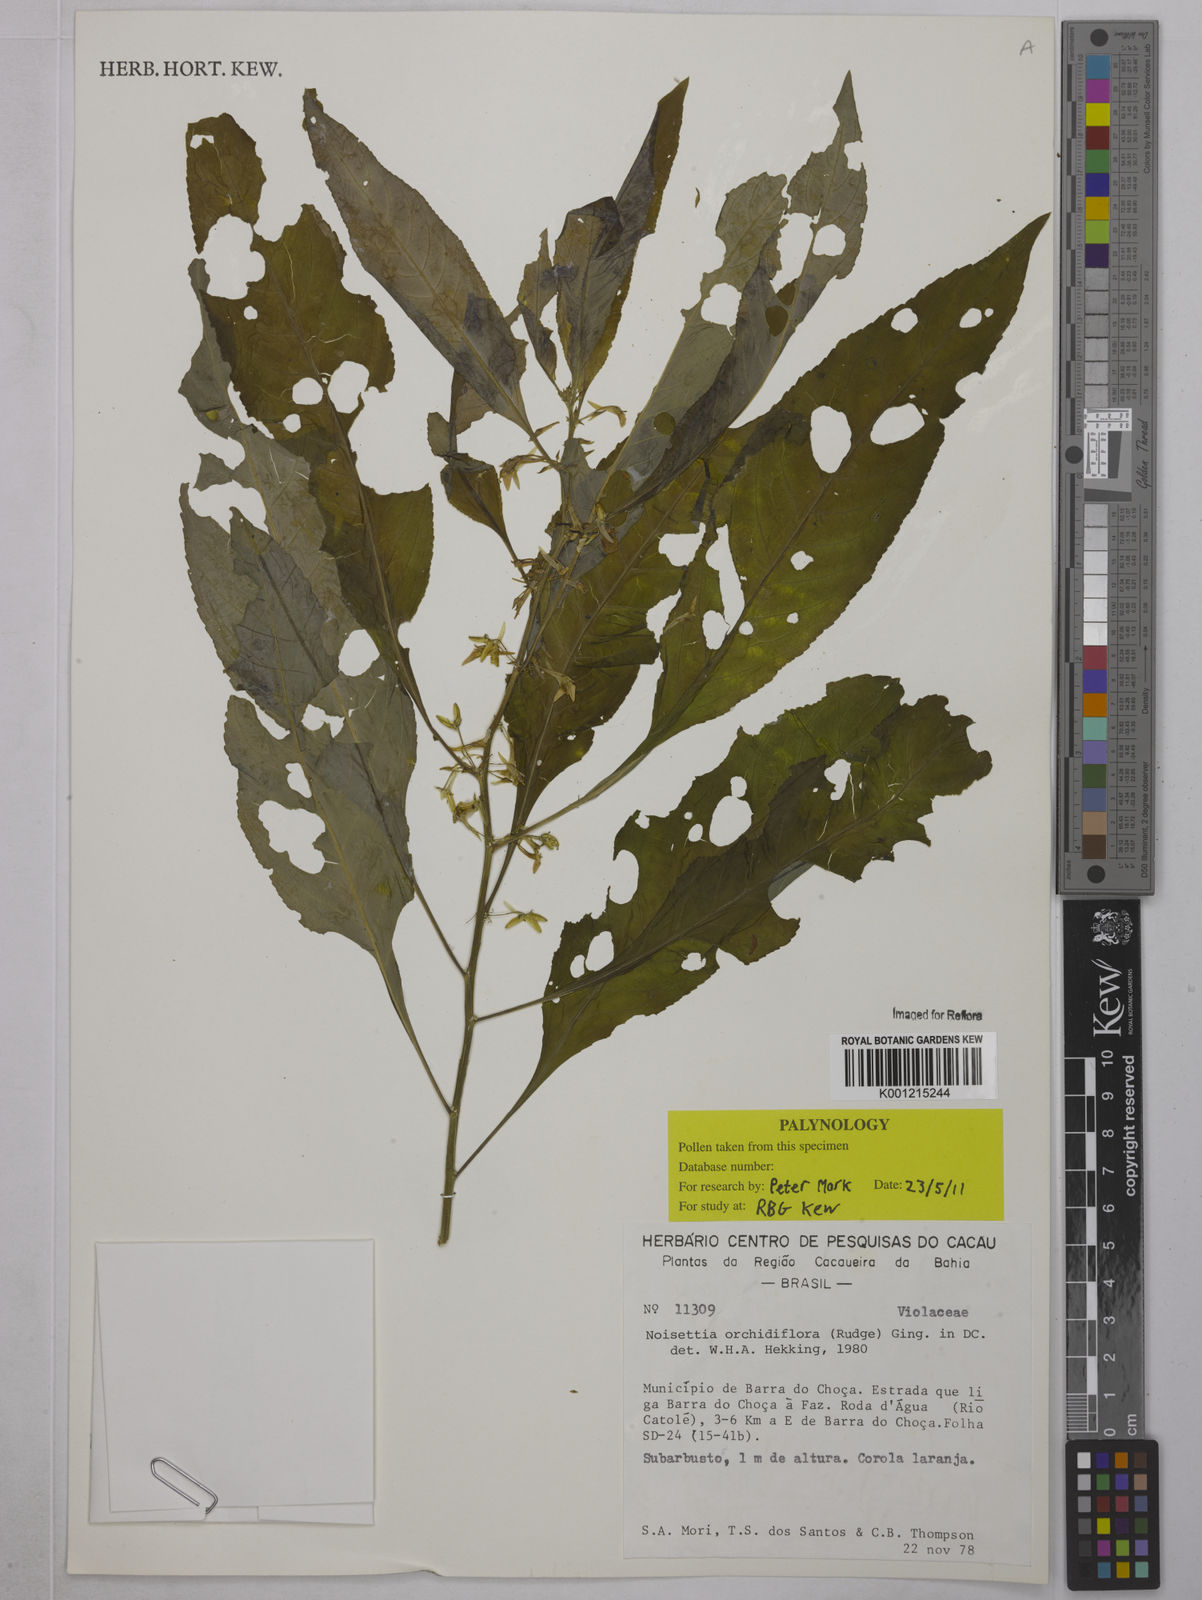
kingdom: Plantae
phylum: Tracheophyta
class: Magnoliopsida
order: Malpighiales
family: Violaceae
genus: Noisettia
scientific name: Noisettia orchidiflora
